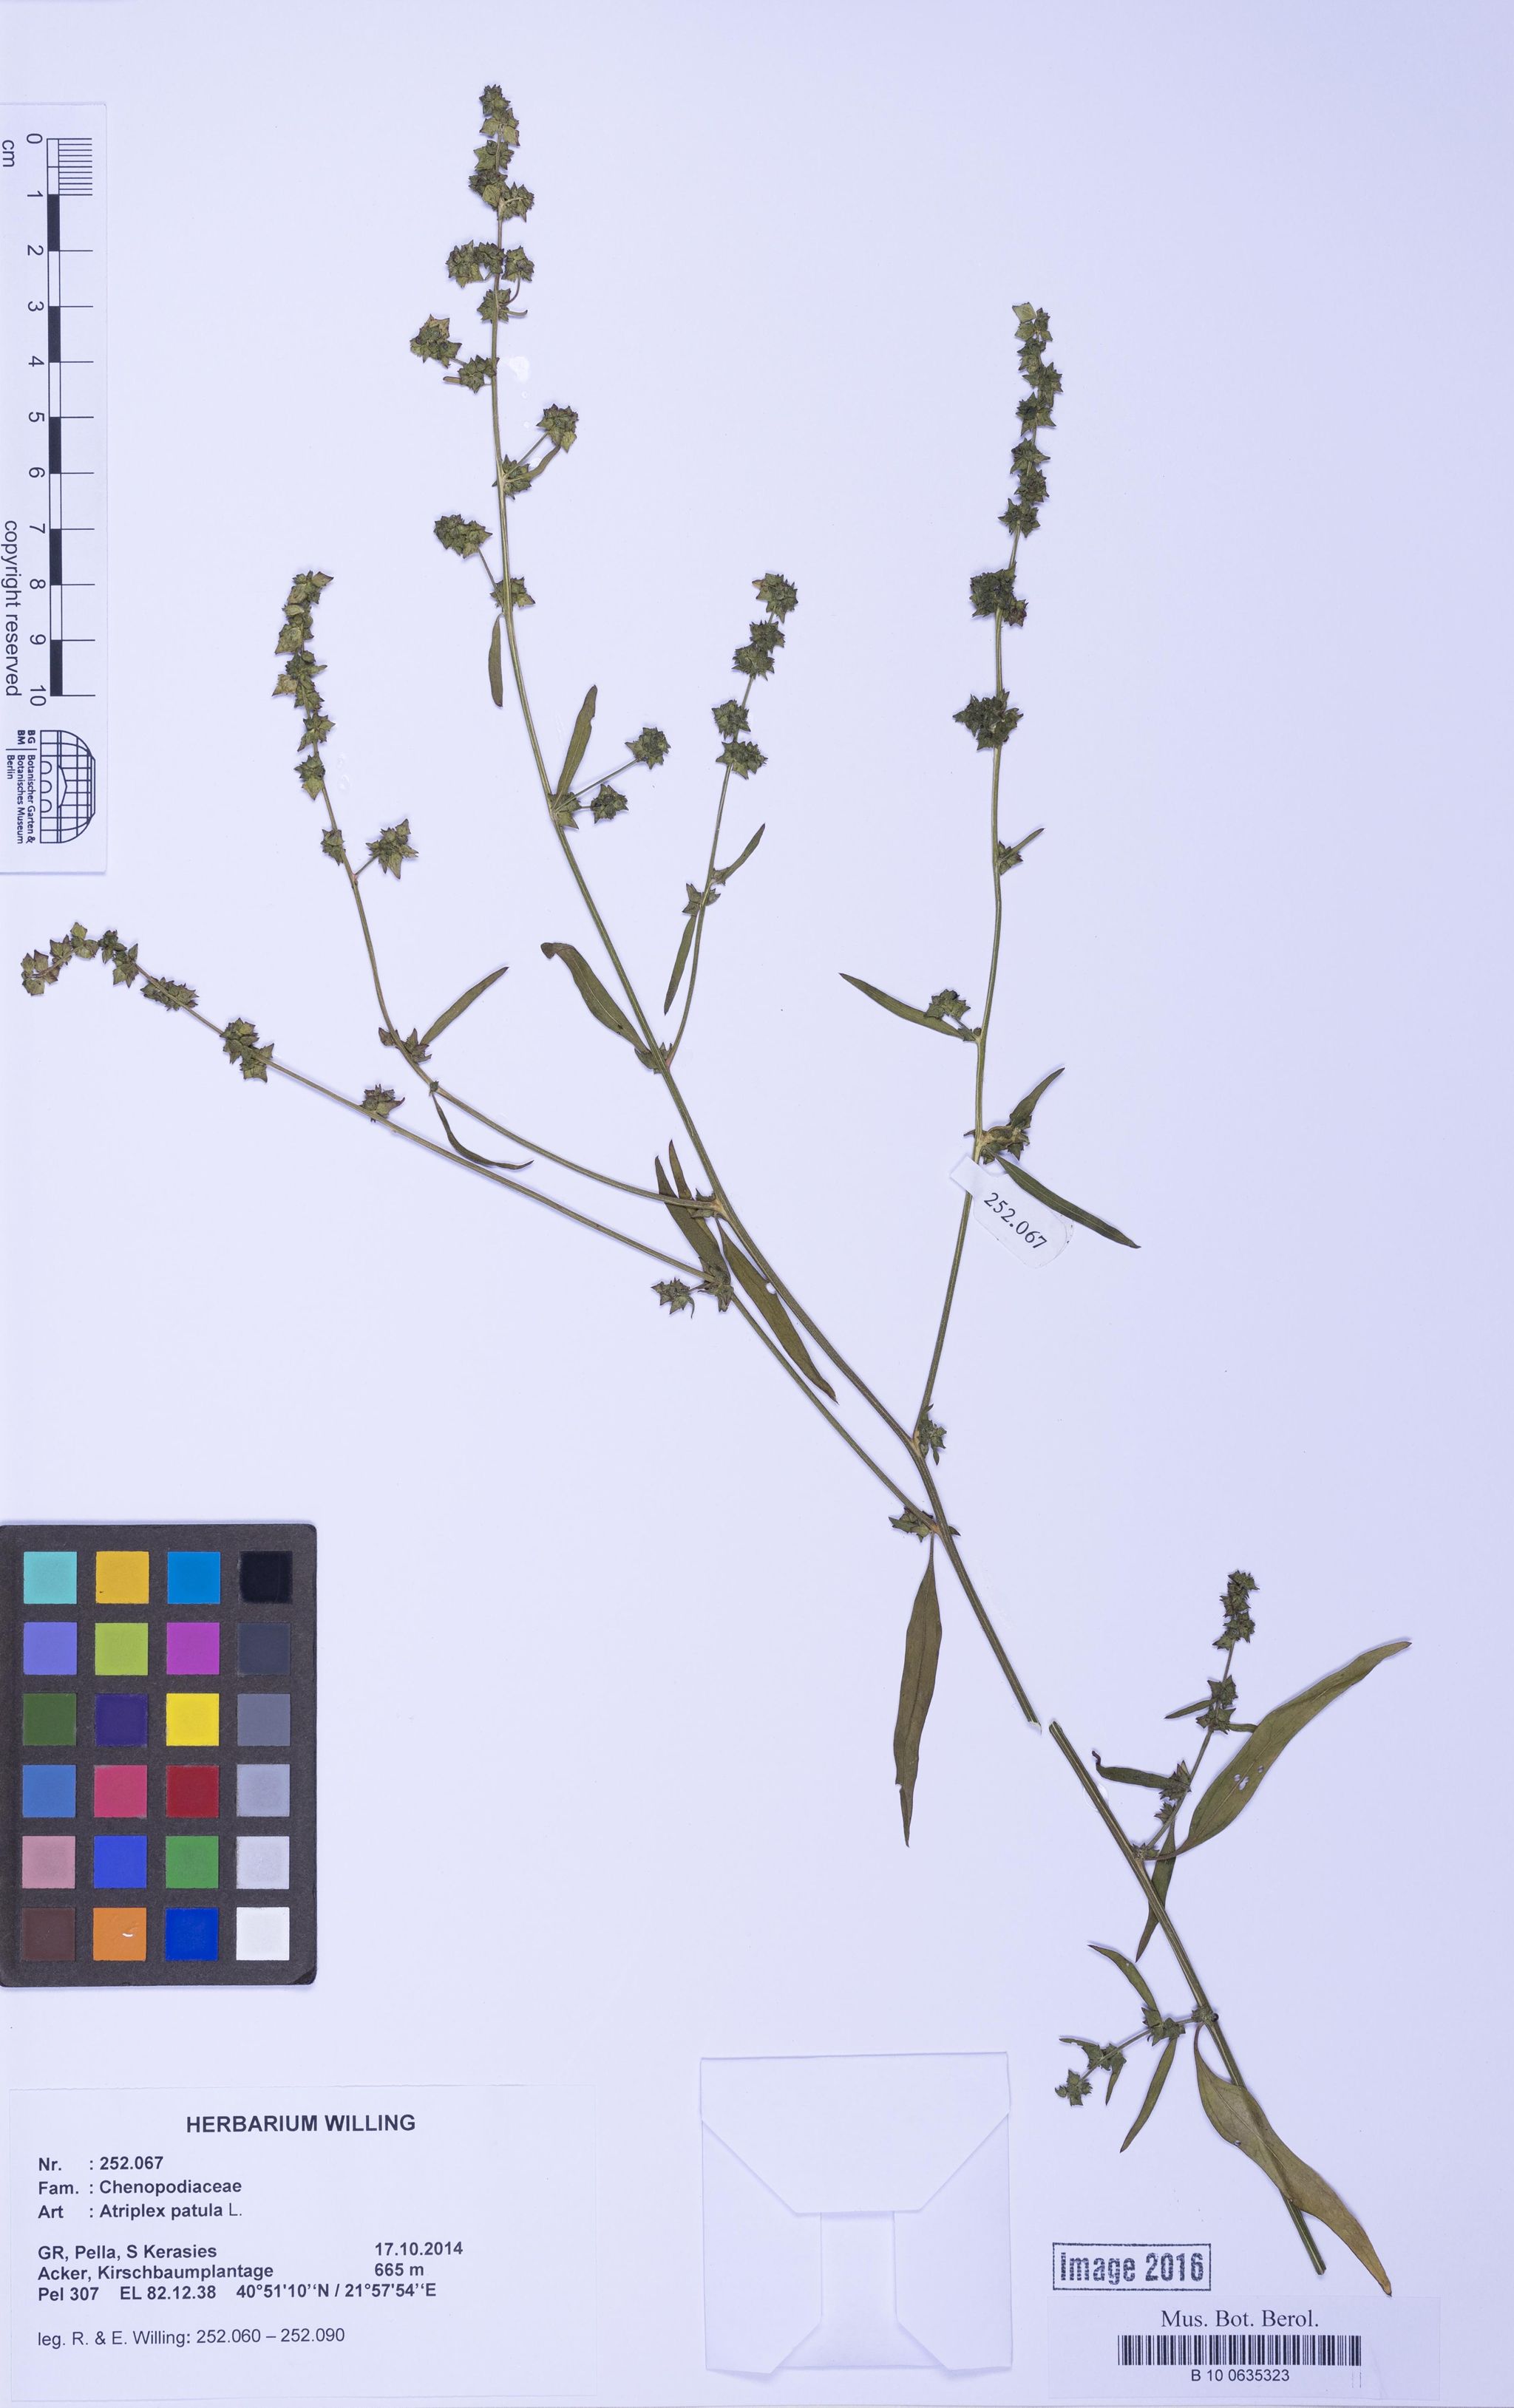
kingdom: Plantae
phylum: Tracheophyta
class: Magnoliopsida
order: Caryophyllales
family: Amaranthaceae
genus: Atriplex
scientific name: Atriplex patula
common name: Common orache
